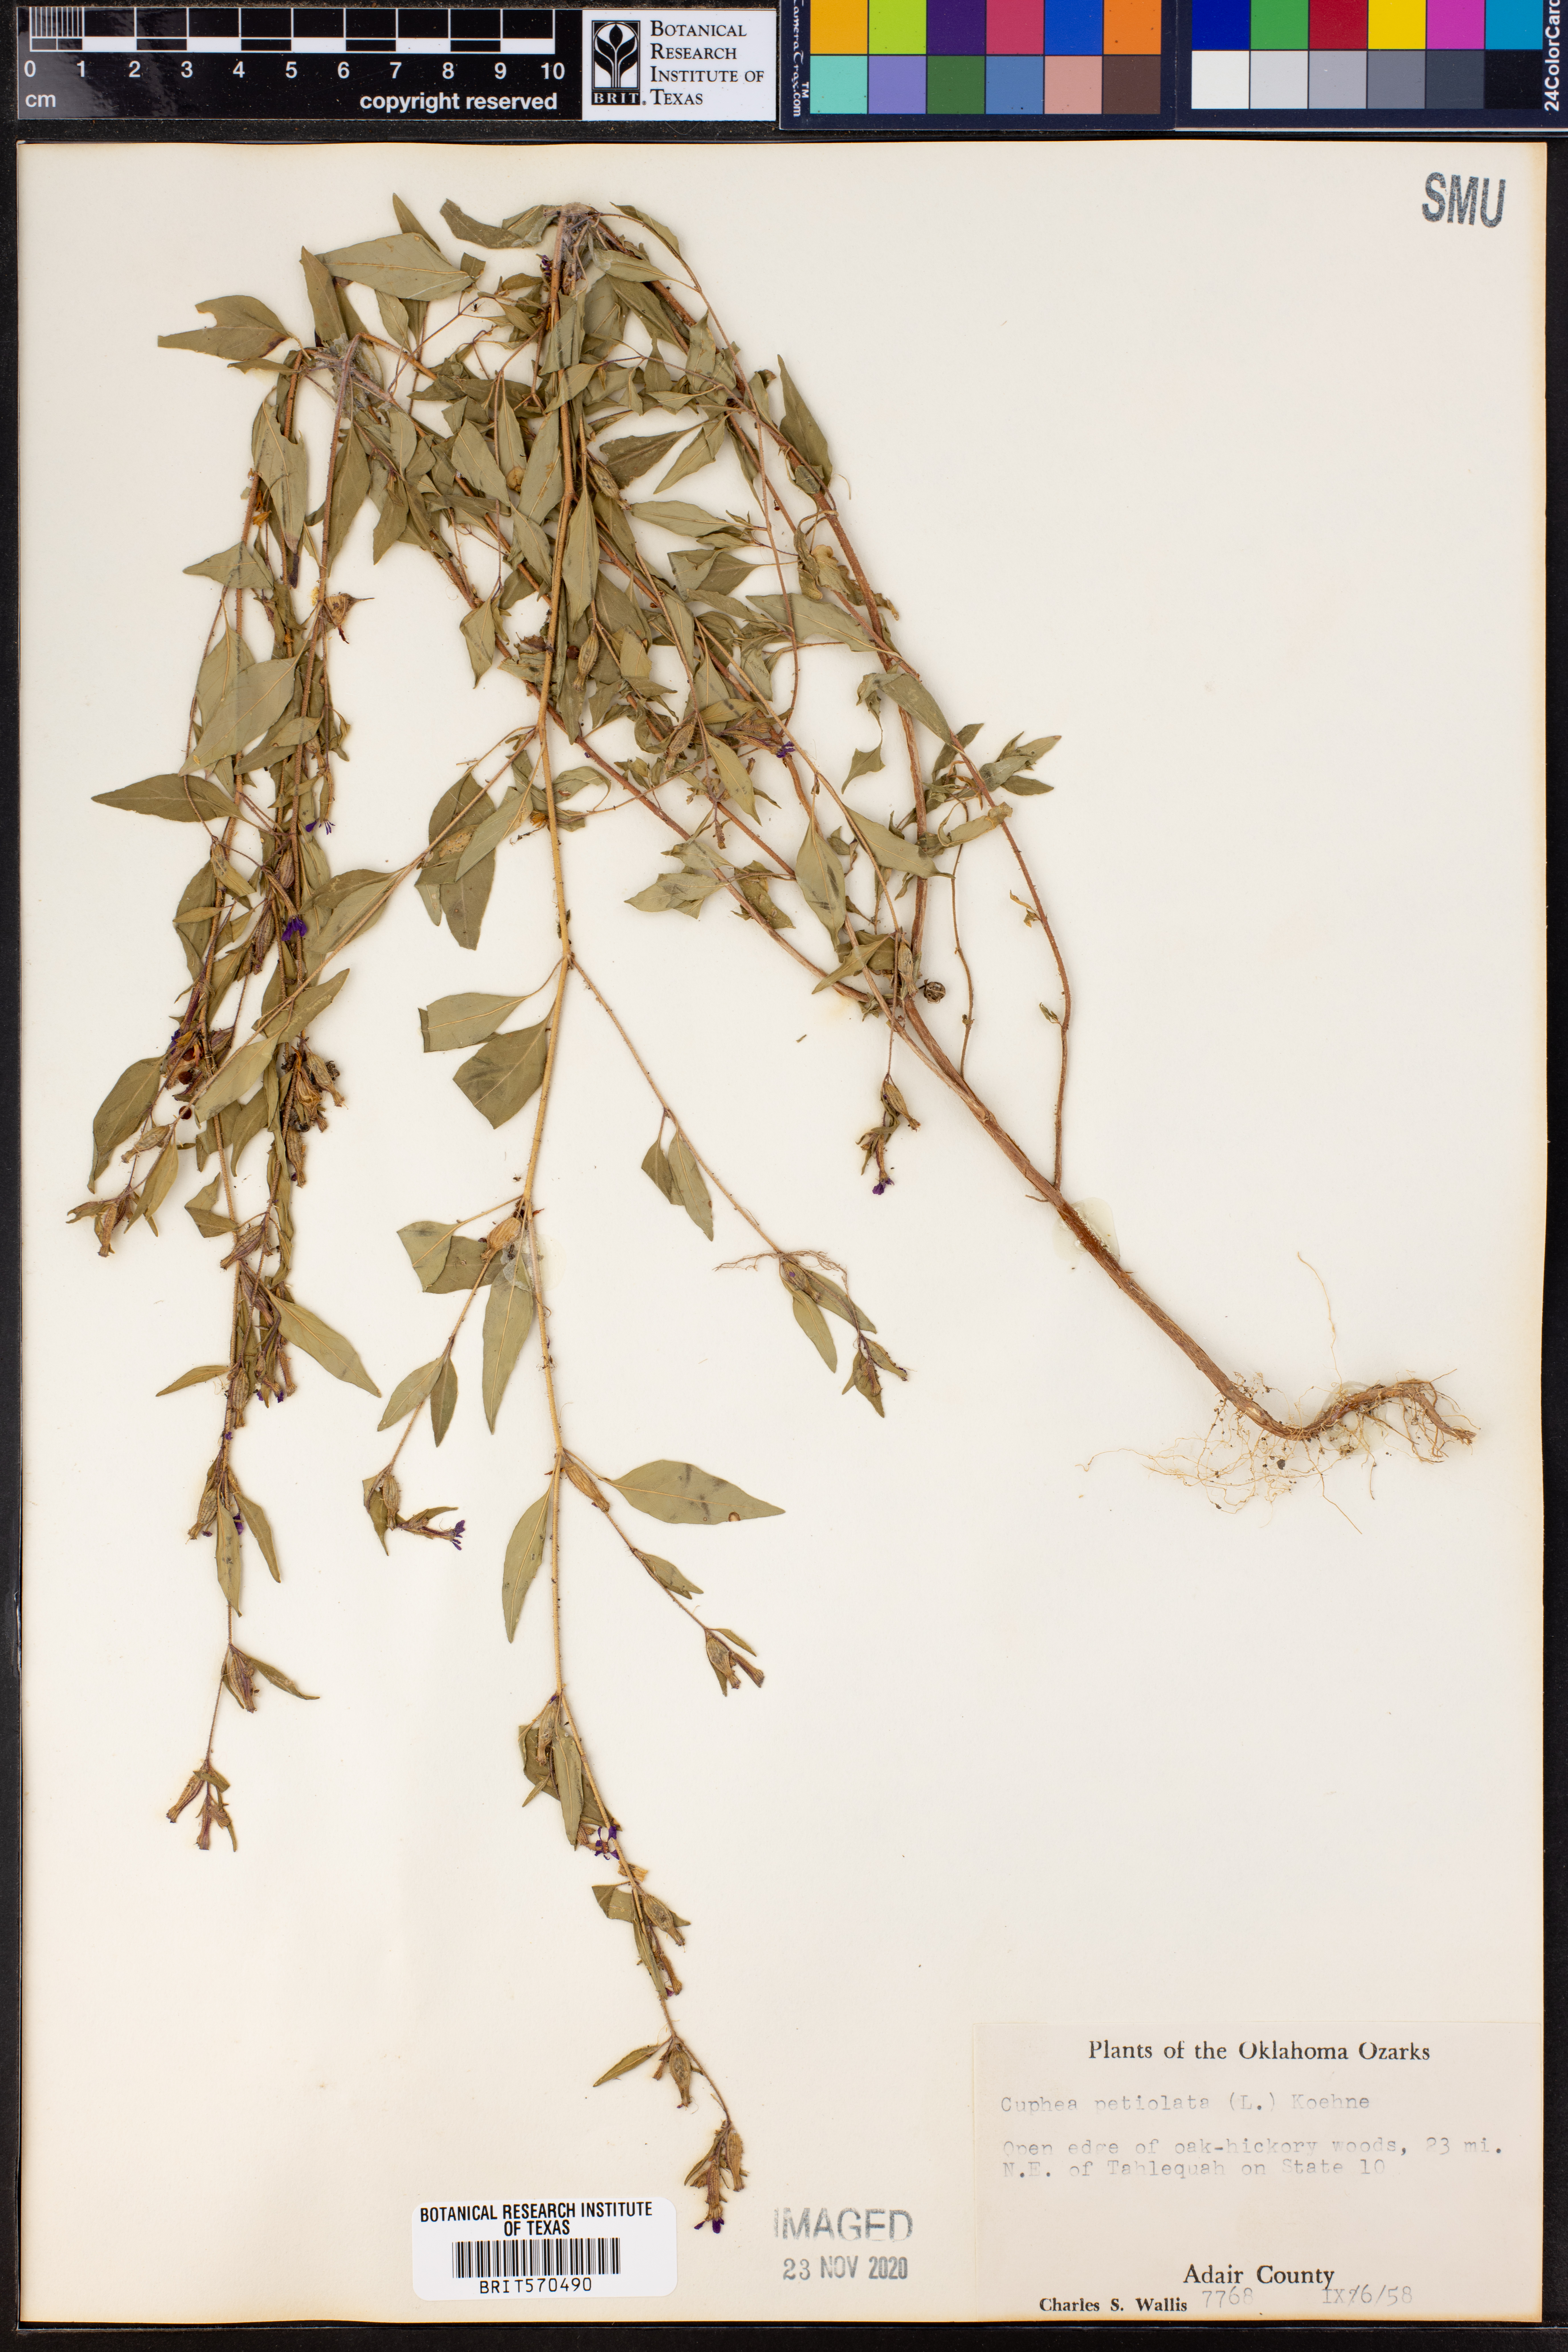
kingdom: Plantae
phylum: Tracheophyta
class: Magnoliopsida
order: Myrtales
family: Lythraceae
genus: Cuphea
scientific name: Cuphea viscosissima
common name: Clammy cuphea
